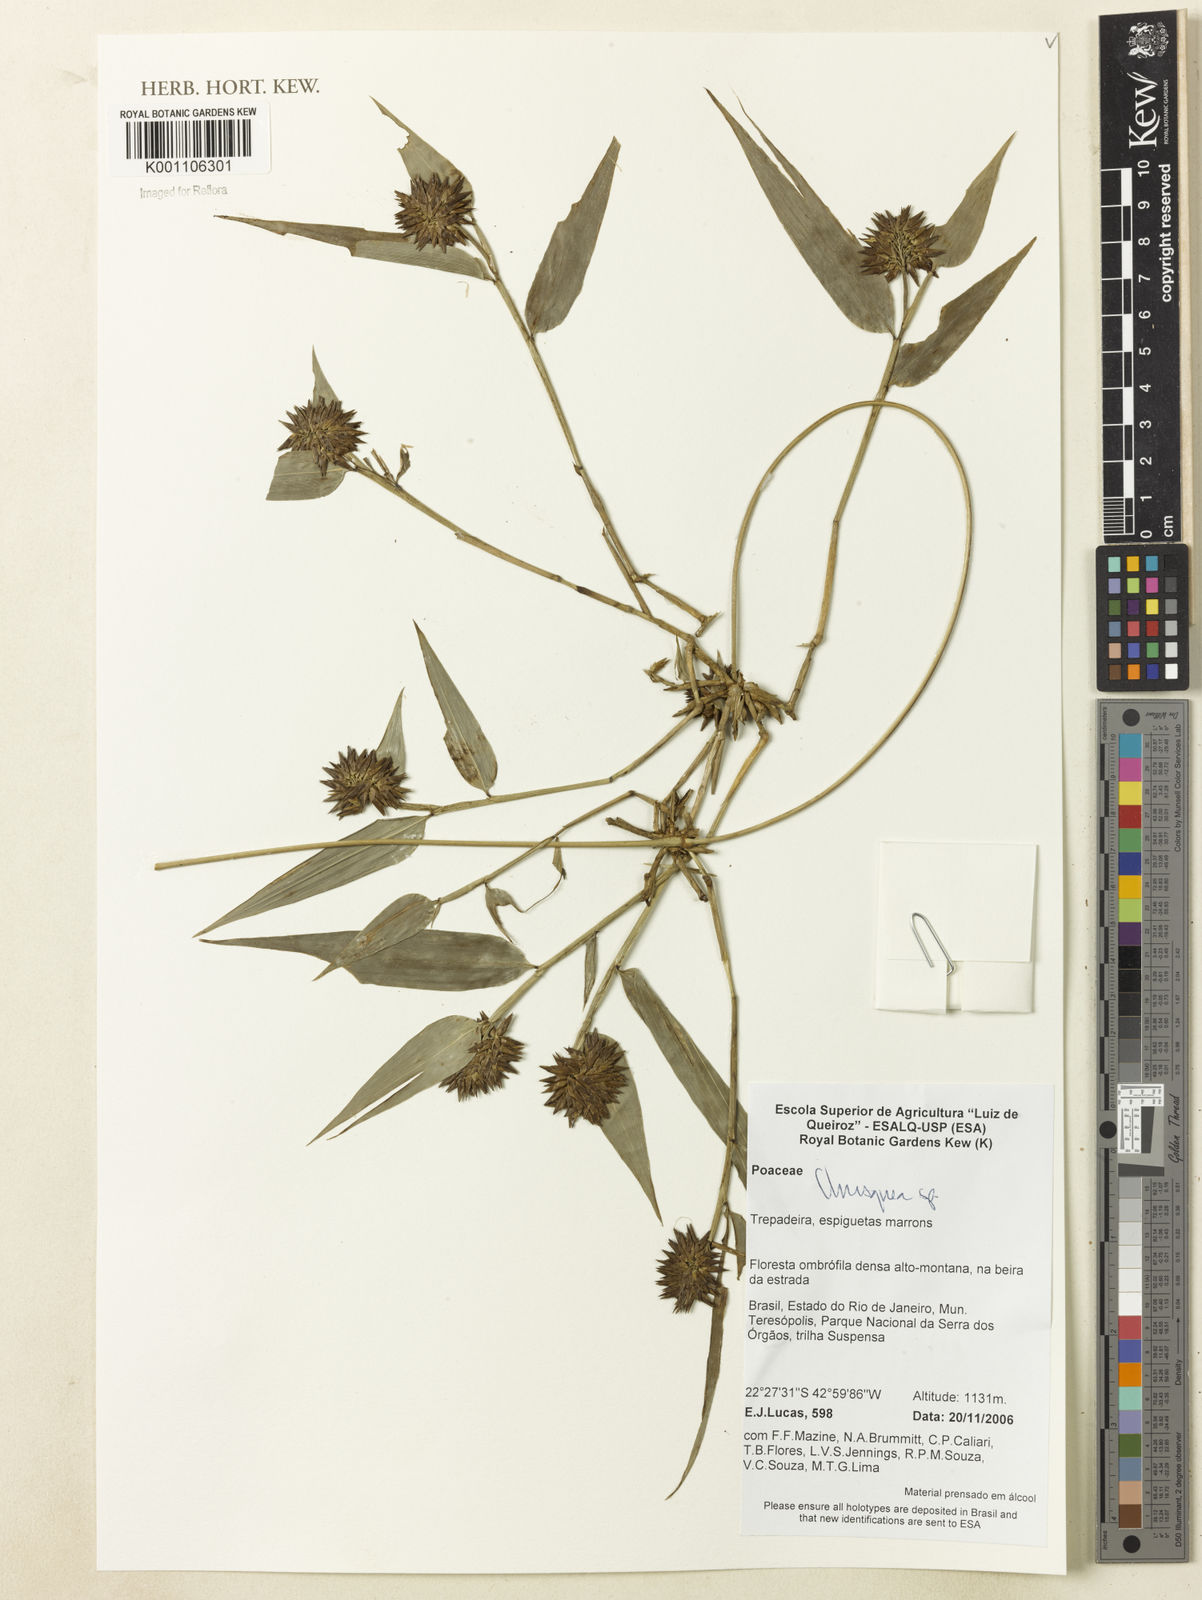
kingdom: Plantae
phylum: Tracheophyta
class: Liliopsida
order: Poales
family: Poaceae
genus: Chusquea
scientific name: Chusquea
